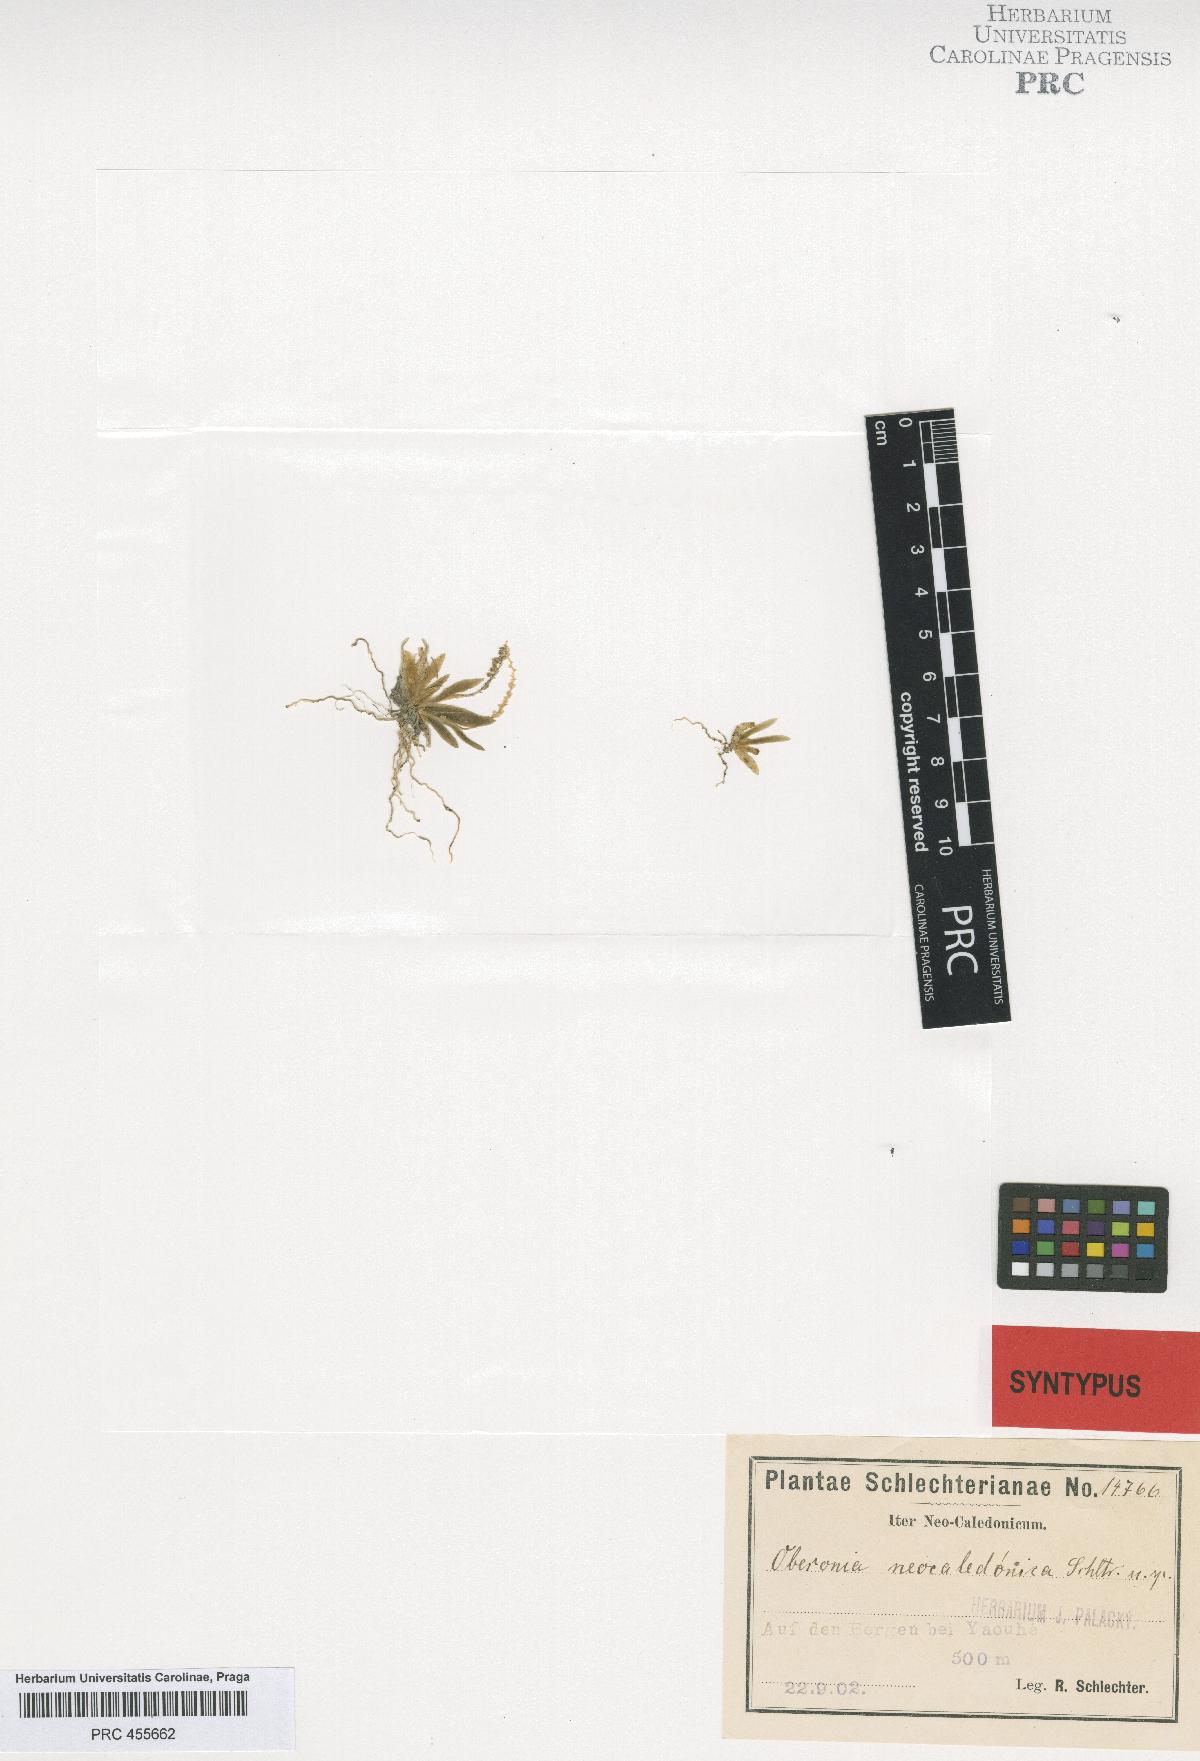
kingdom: Plantae
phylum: Tracheophyta
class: Liliopsida
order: Asparagales
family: Orchidaceae
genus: Oberonia
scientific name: Oberonia titania
